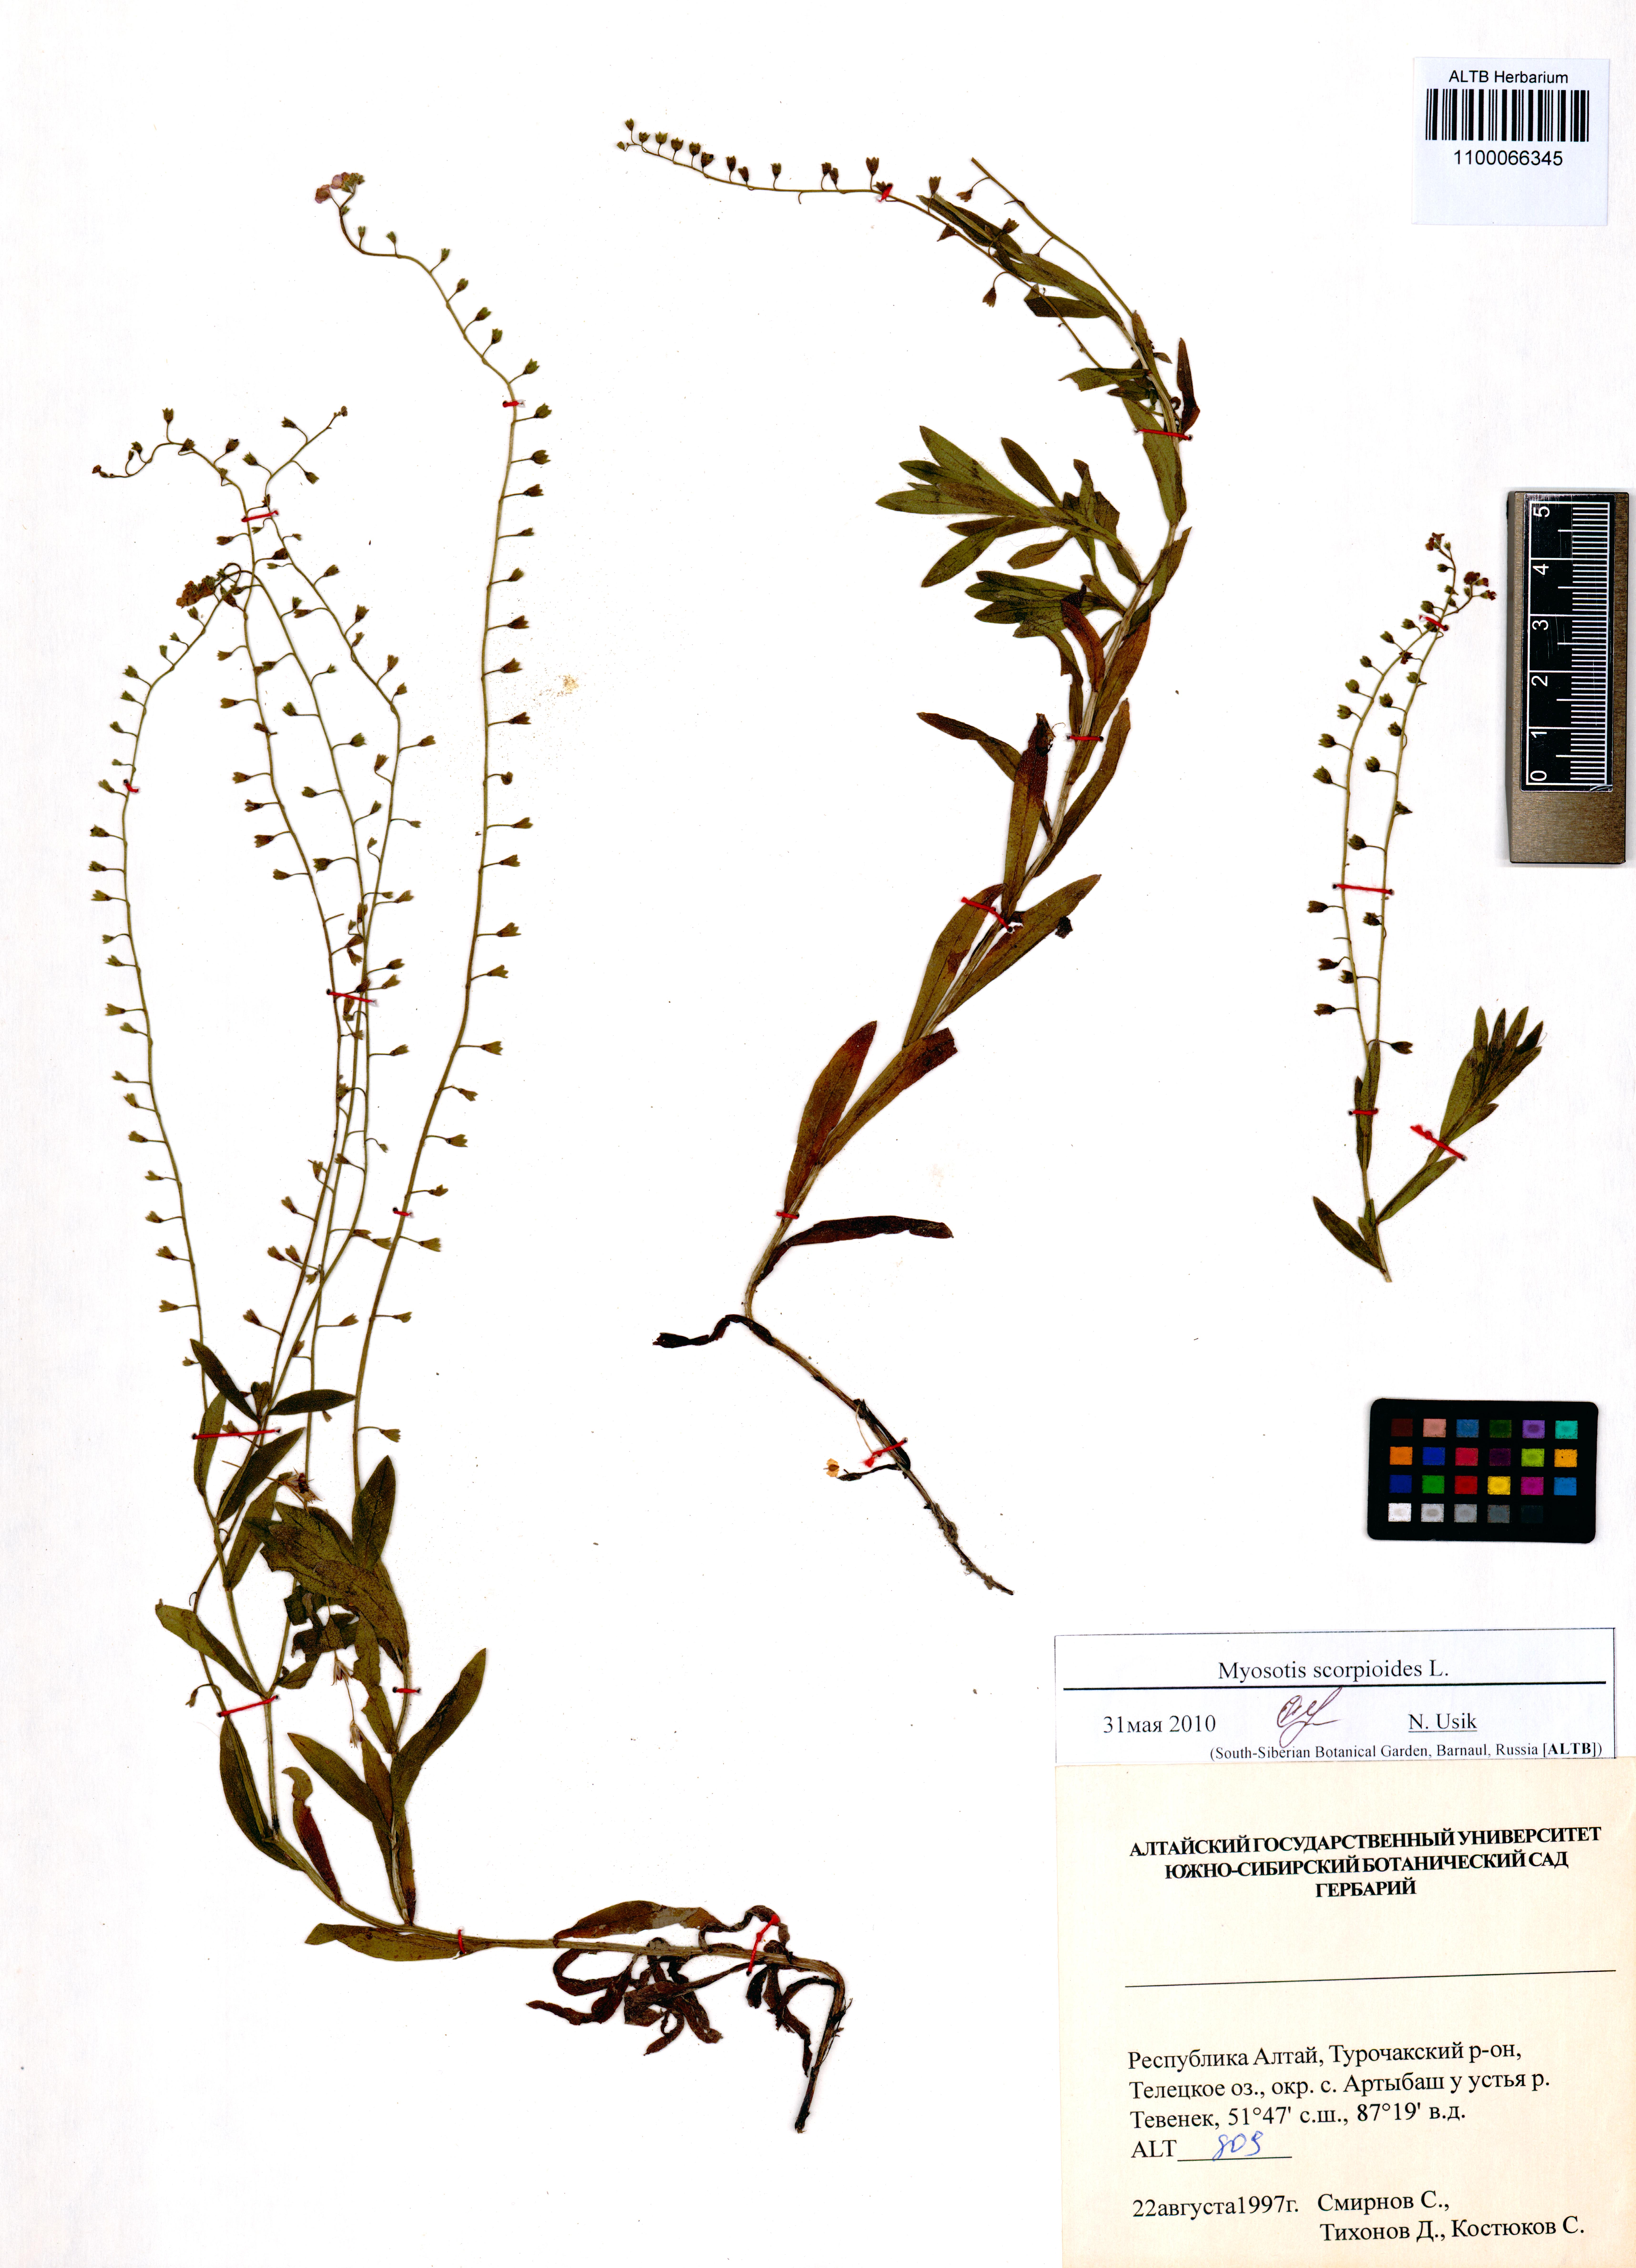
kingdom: Plantae
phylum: Tracheophyta
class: Magnoliopsida
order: Boraginales
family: Boraginaceae
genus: Myosotis
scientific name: Myosotis scorpioides
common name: Water forget-me-not
